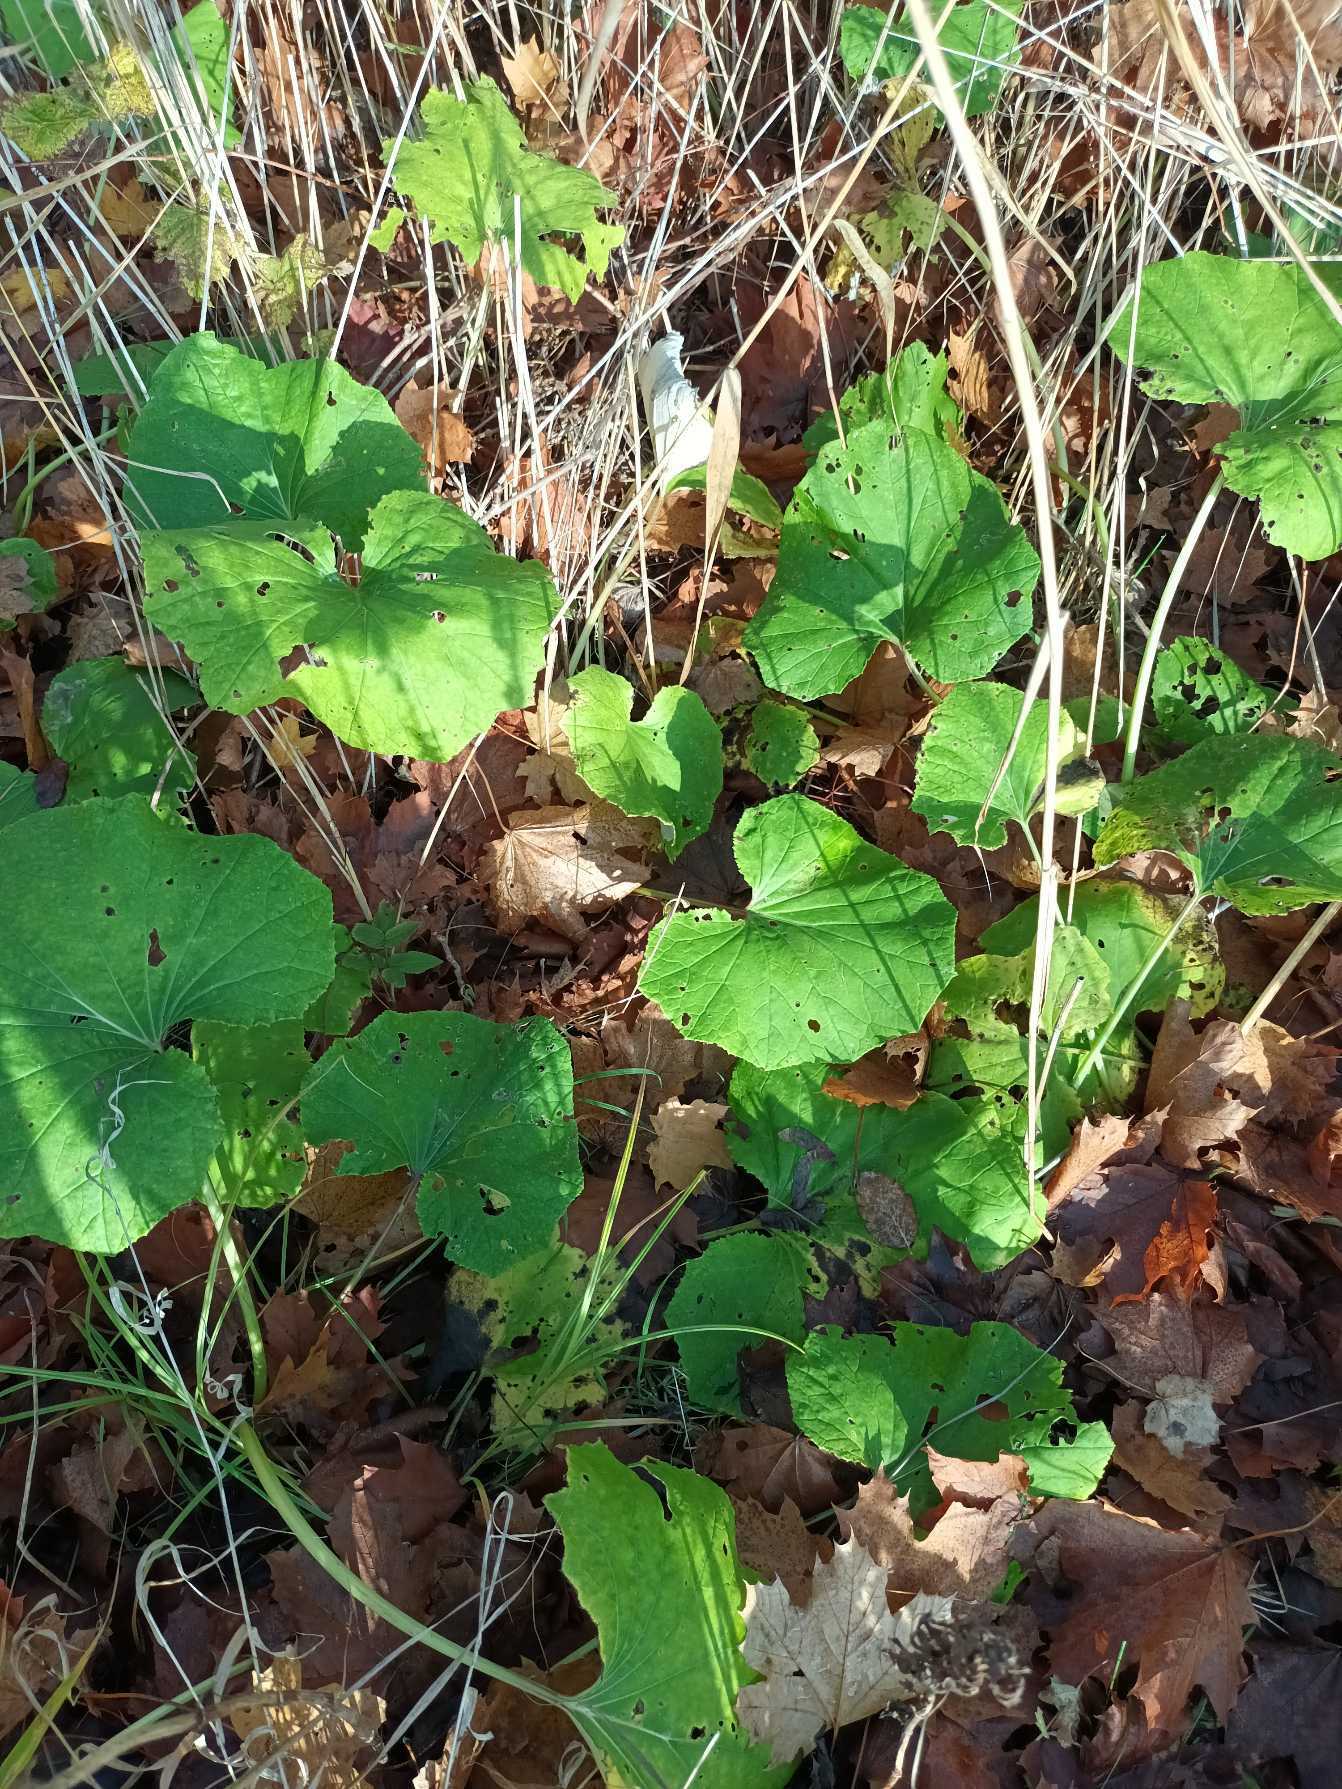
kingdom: Plantae
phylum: Tracheophyta
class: Magnoliopsida
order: Asterales
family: Asteraceae
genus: Petasites
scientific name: Petasites hybridus
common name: Rød hestehov
